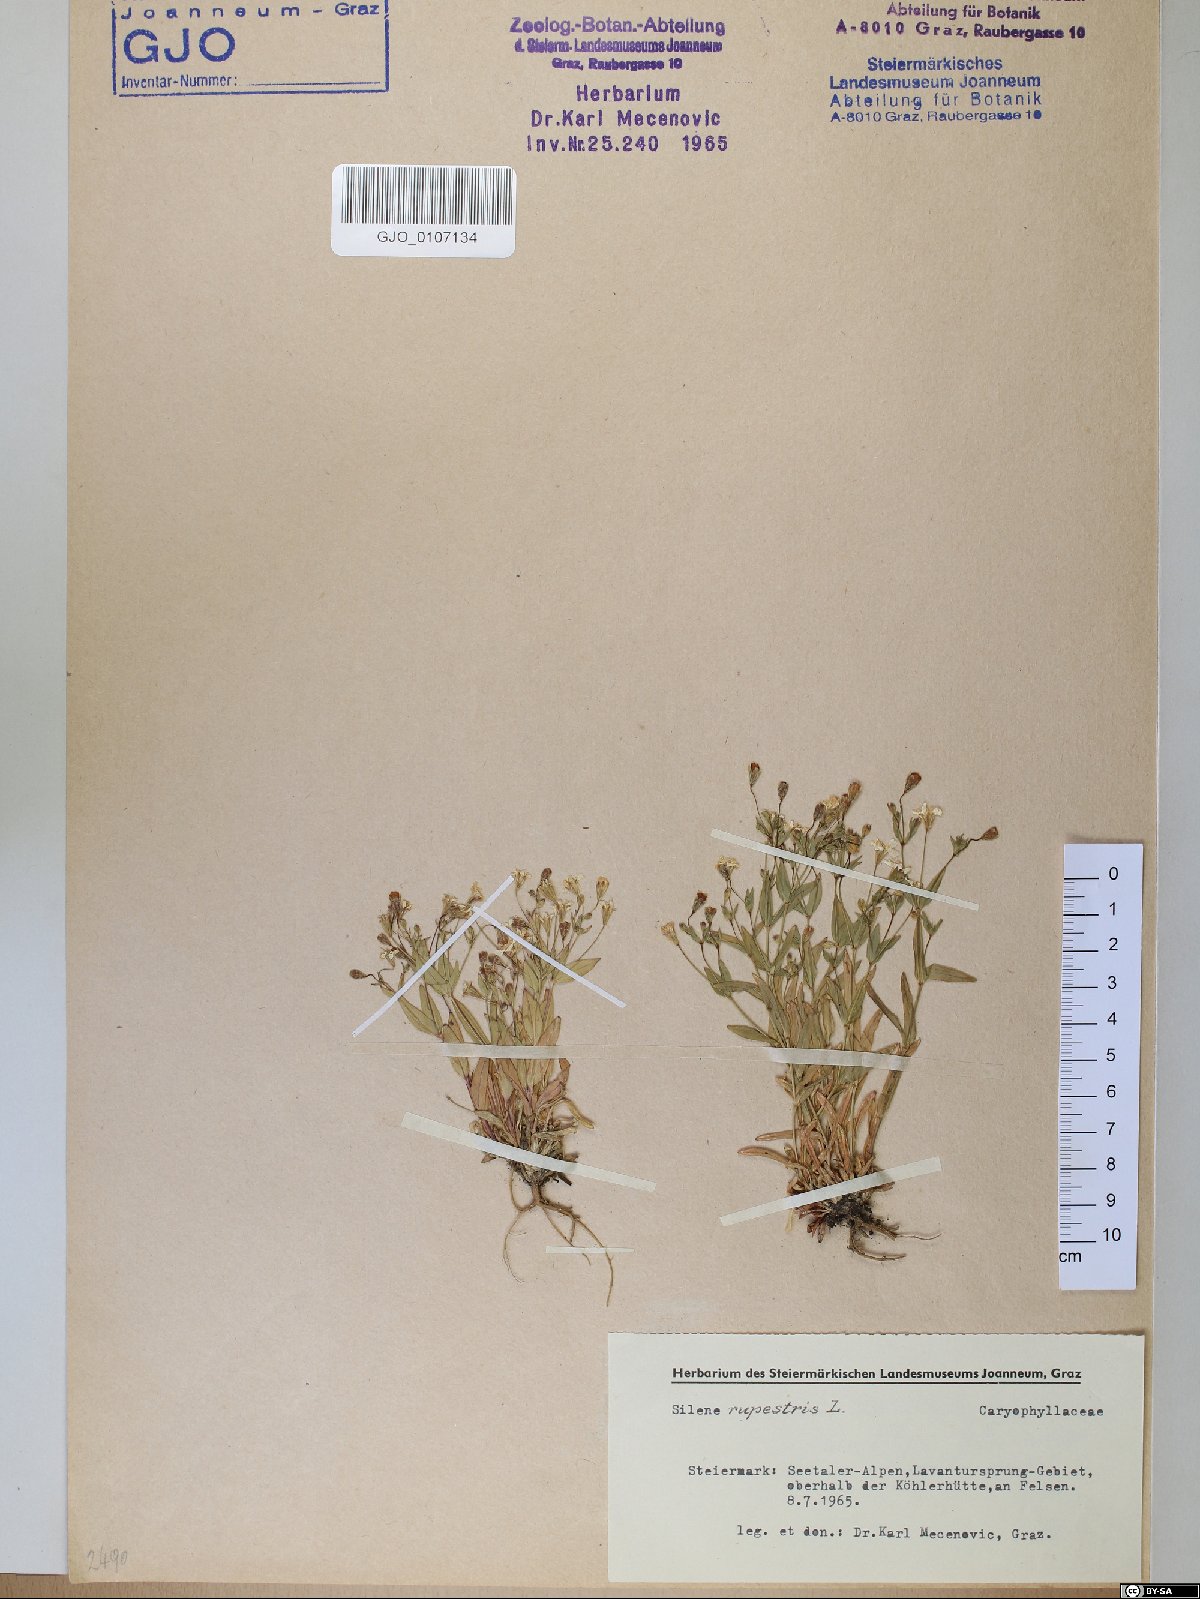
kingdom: Plantae
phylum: Tracheophyta
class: Magnoliopsida
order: Caryophyllales
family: Caryophyllaceae
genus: Atocion
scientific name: Atocion rupestre
